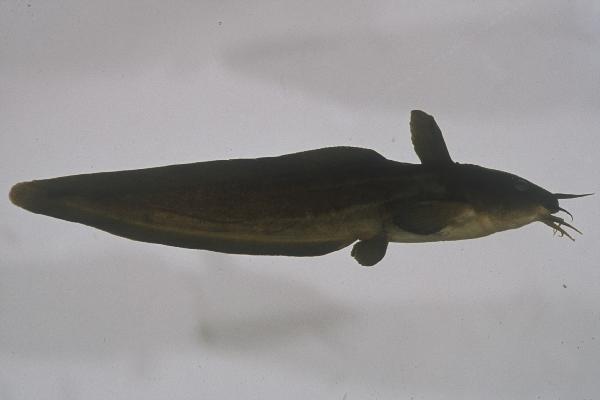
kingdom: Animalia
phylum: Chordata
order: Siluriformes
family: Plotosidae
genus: Plotosus
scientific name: Plotosus nkunga
